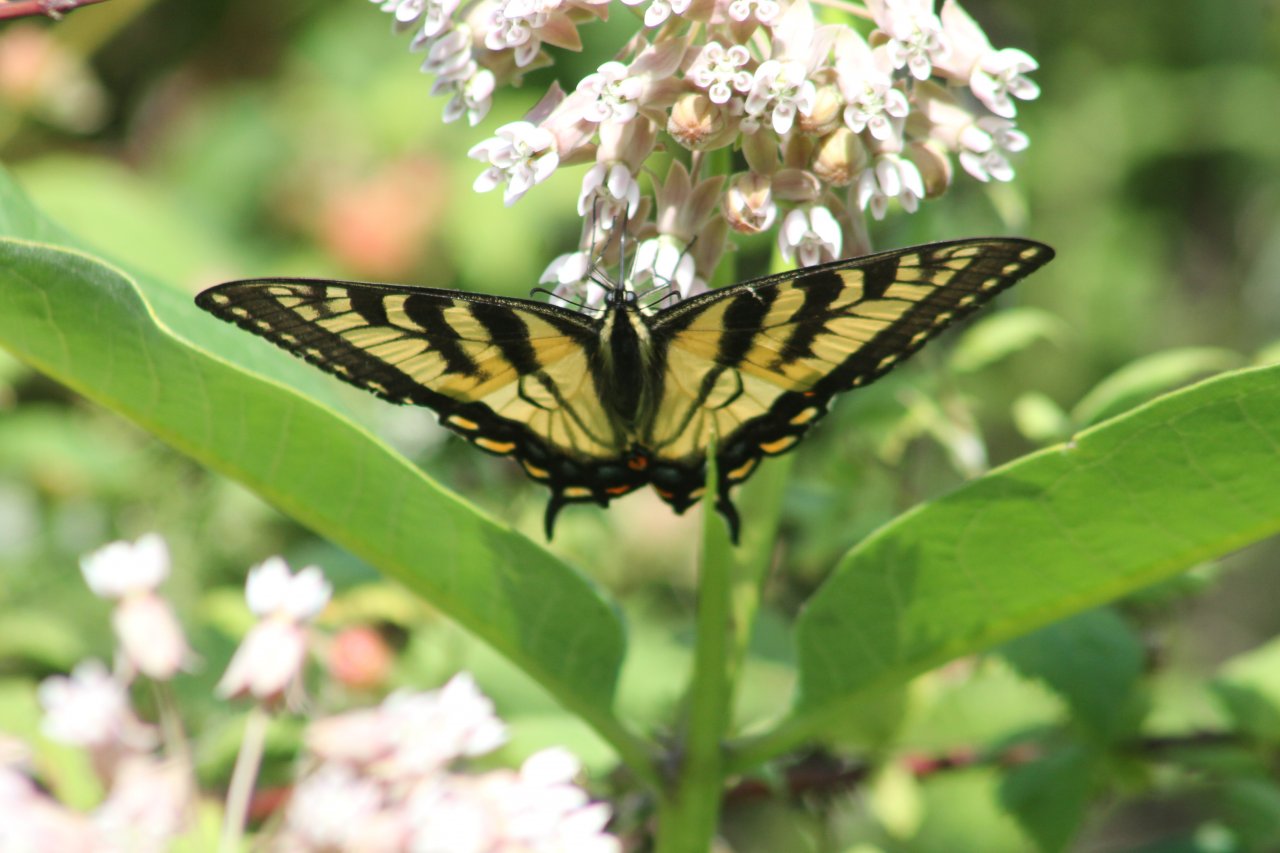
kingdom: Animalia
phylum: Arthropoda
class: Insecta
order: Lepidoptera
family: Papilionidae
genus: Pterourus
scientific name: Pterourus
